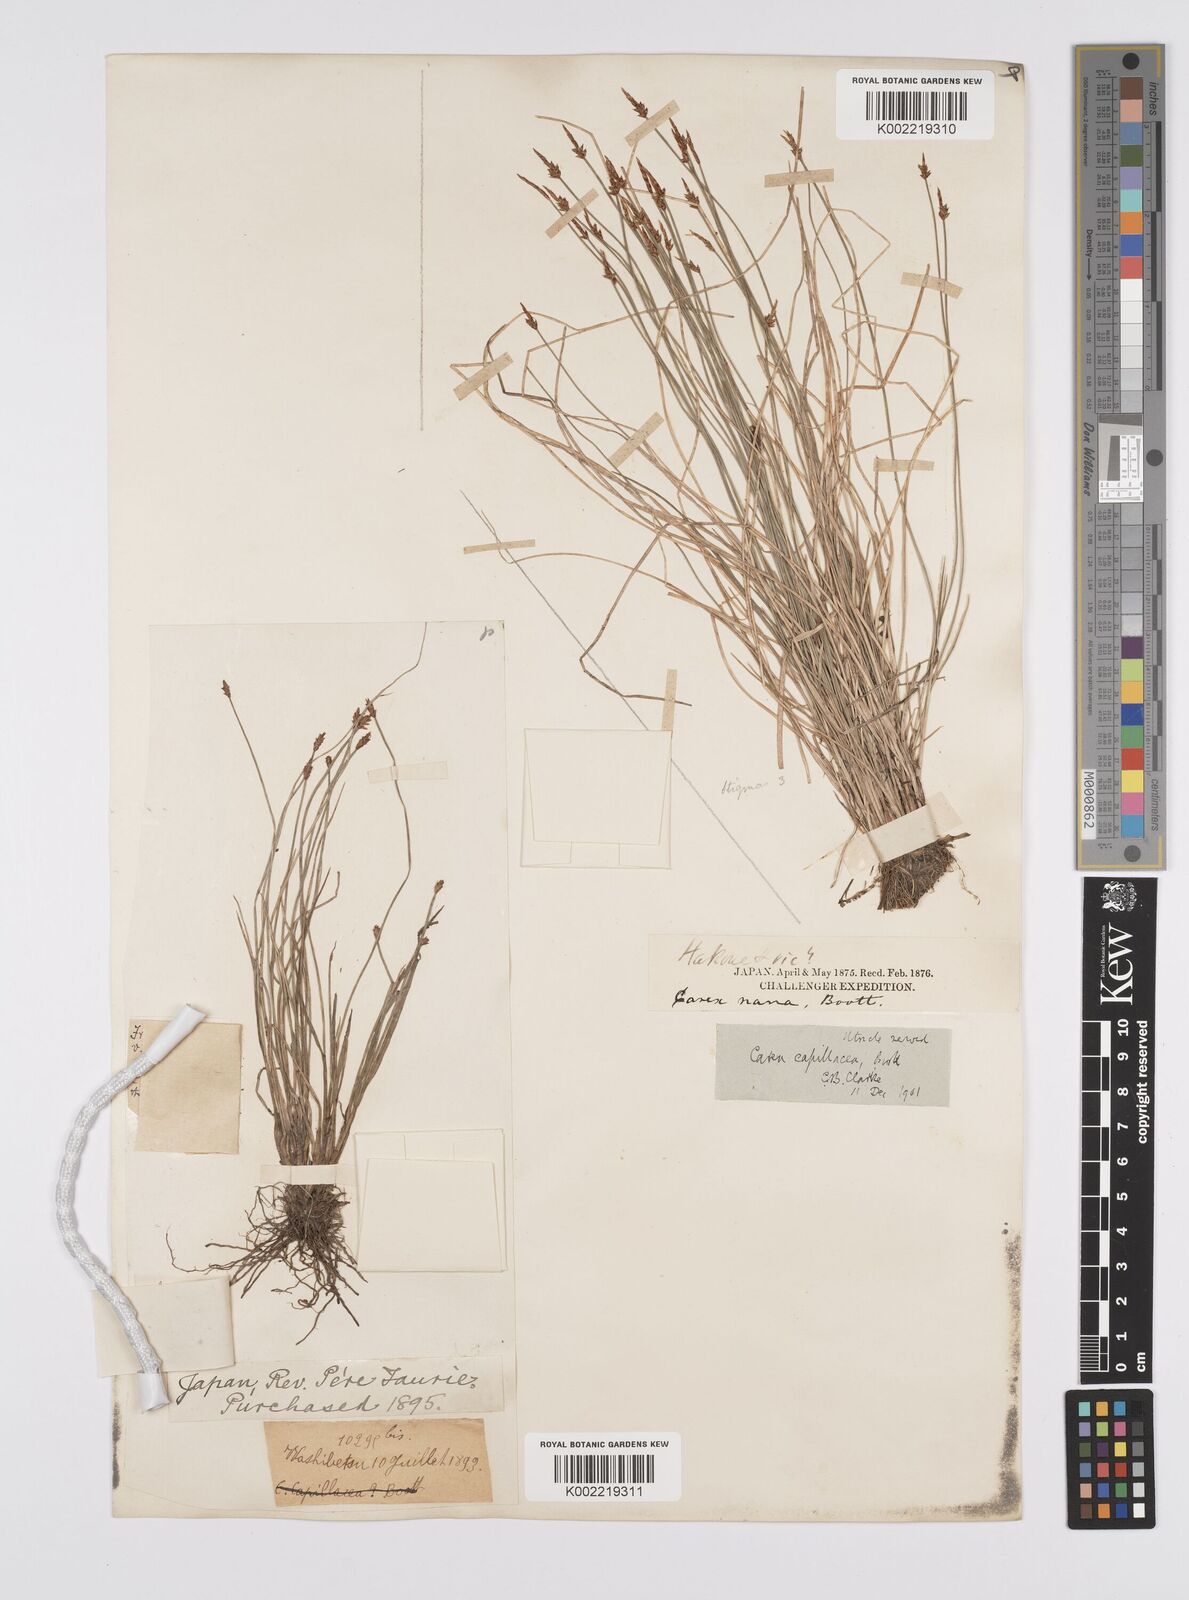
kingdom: Plantae
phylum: Tracheophyta
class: Liliopsida
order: Poales
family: Cyperaceae
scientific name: Cyperaceae
